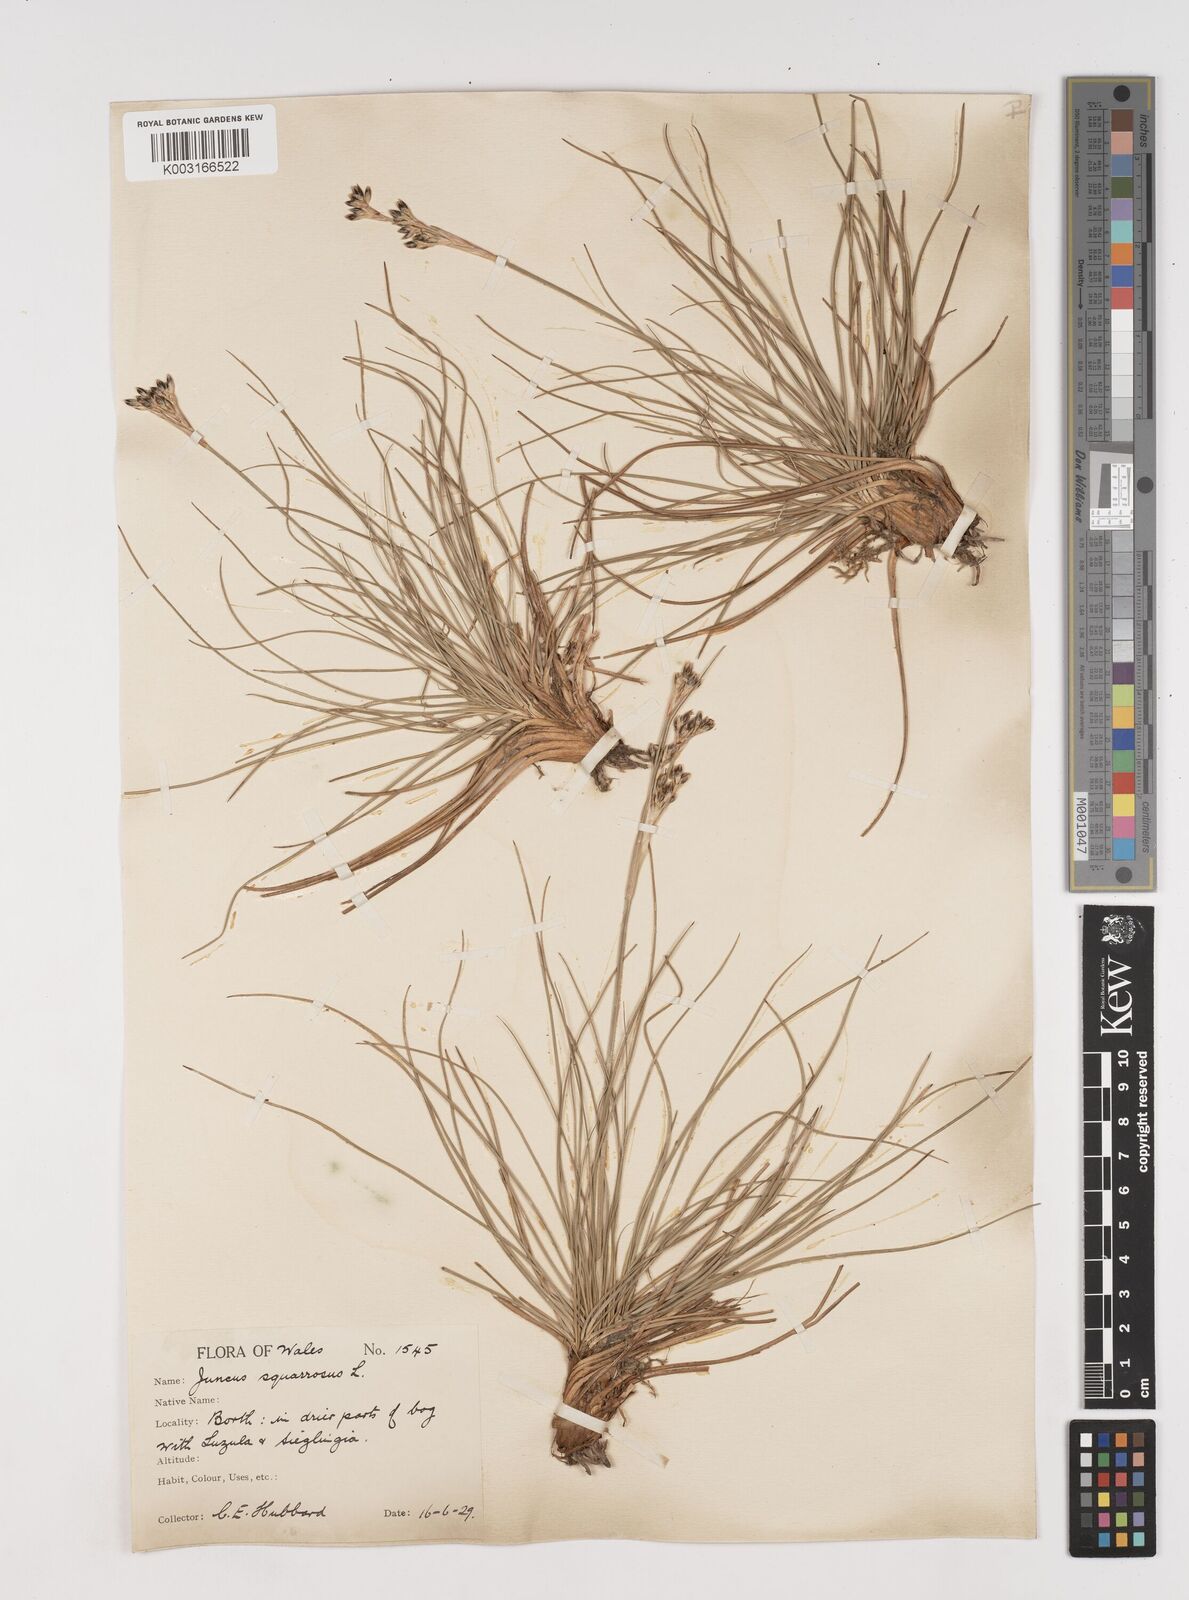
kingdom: Plantae
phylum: Tracheophyta
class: Liliopsida
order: Poales
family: Juncaceae
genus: Juncus
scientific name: Juncus squarrosus
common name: Heath rush
